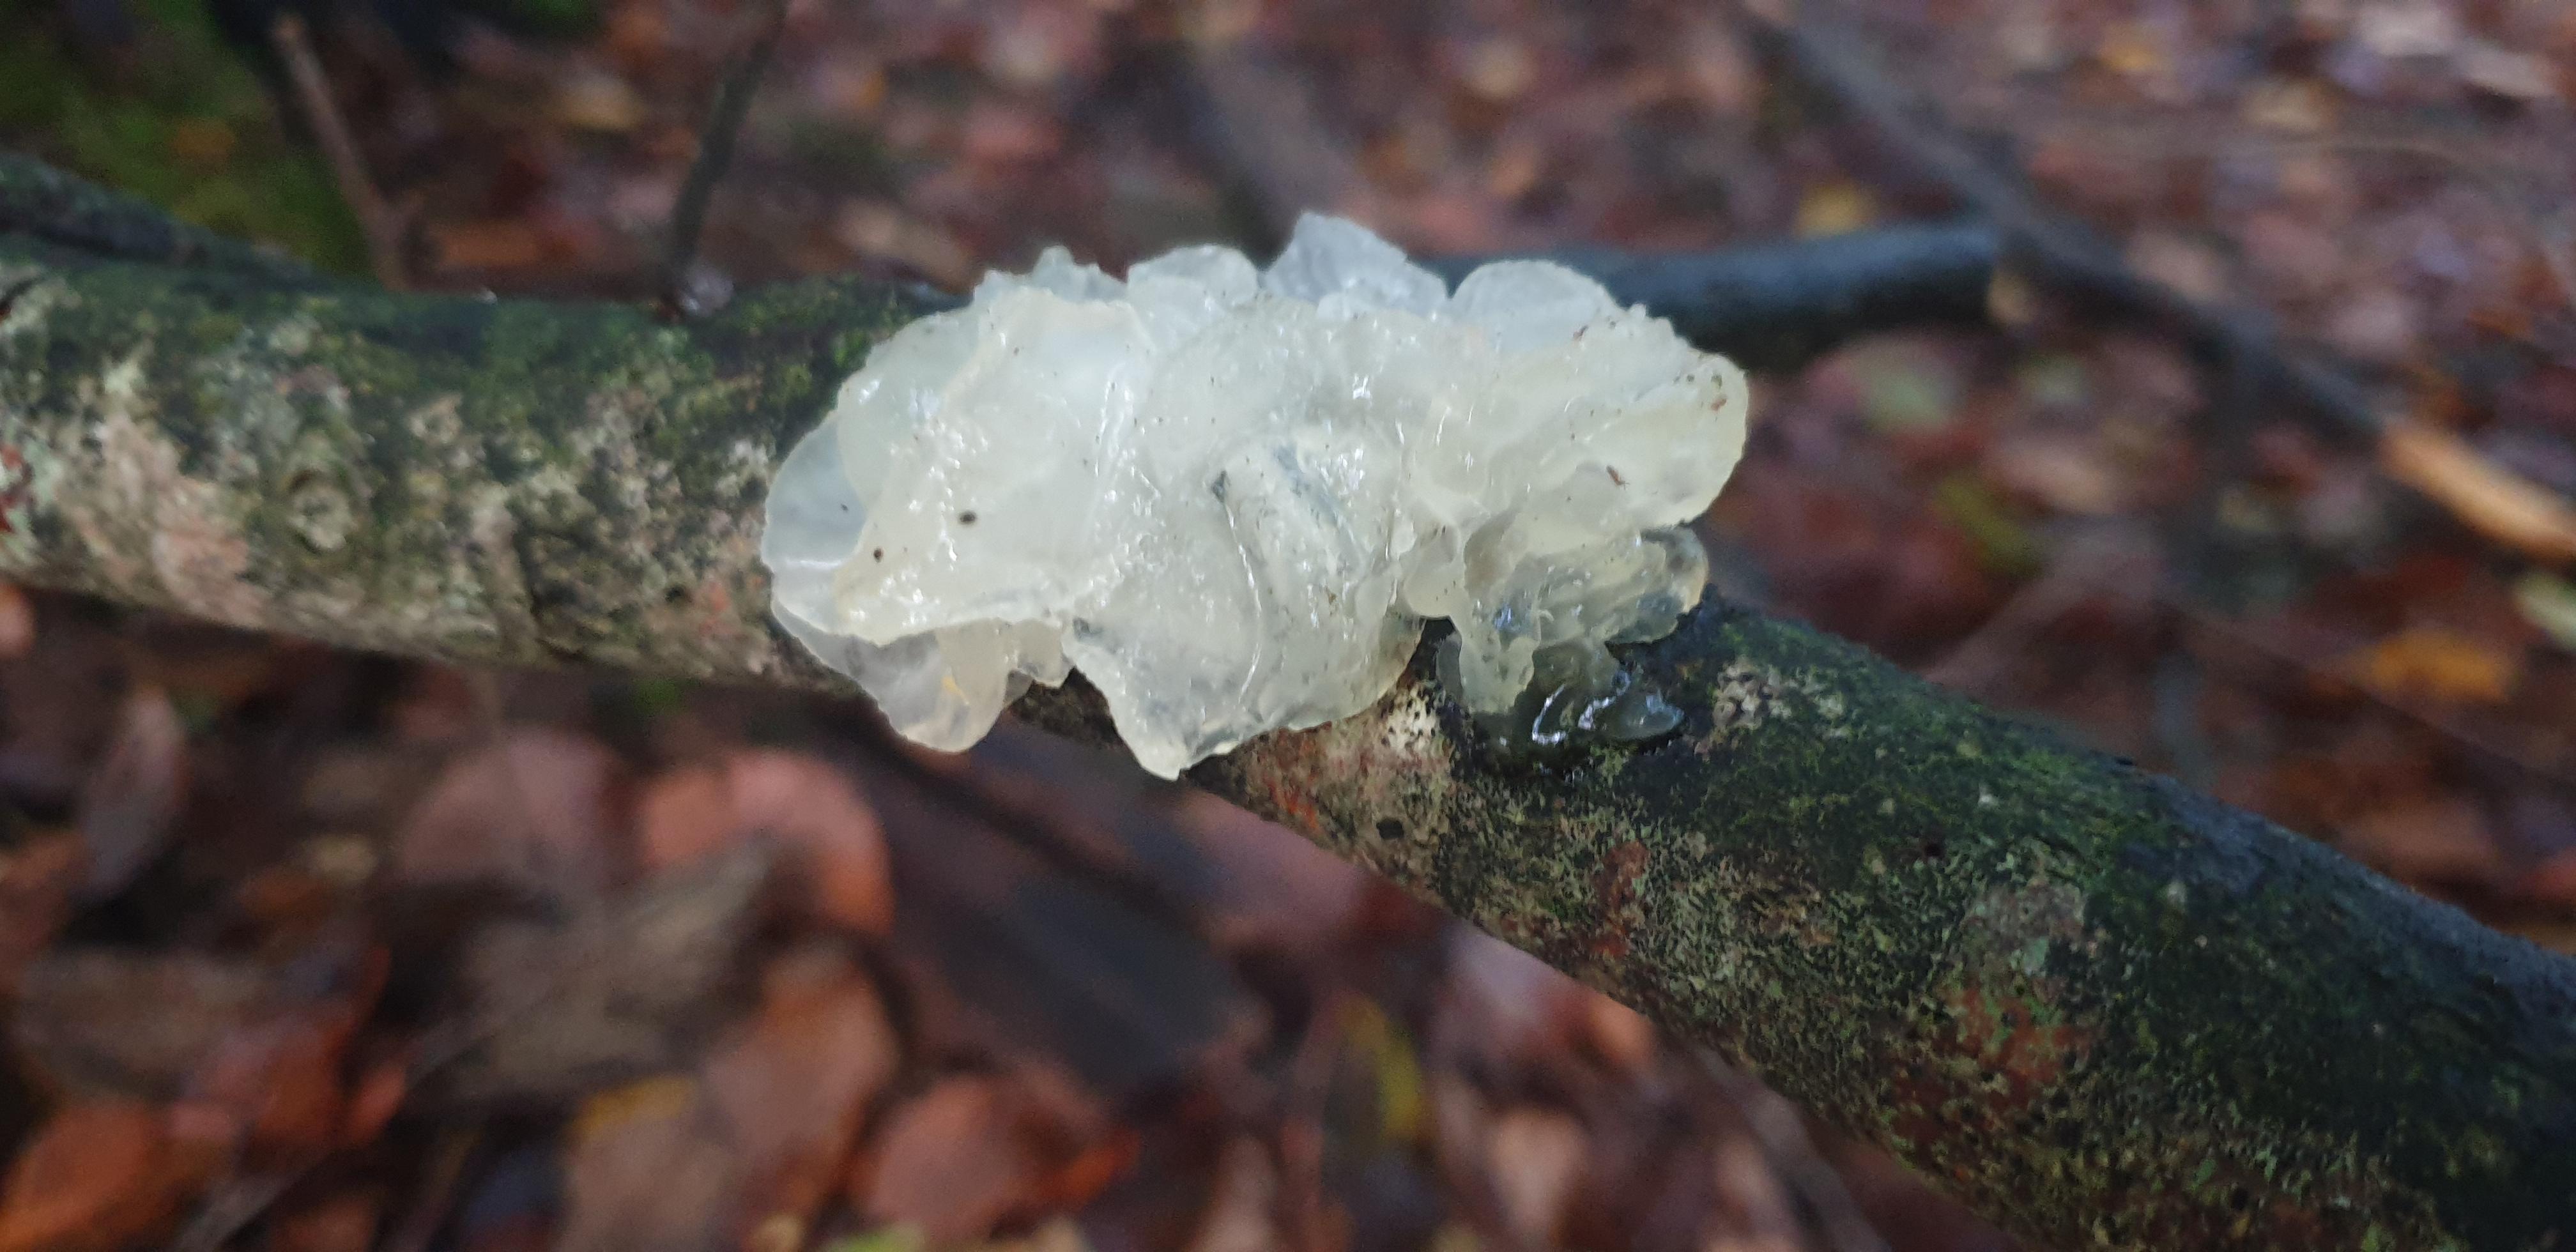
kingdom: Fungi
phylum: Basidiomycota
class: Tremellomycetes
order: Tremellales
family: Tremellaceae
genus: Tremella
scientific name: Tremella mesenterica
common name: gul bævresvamp
